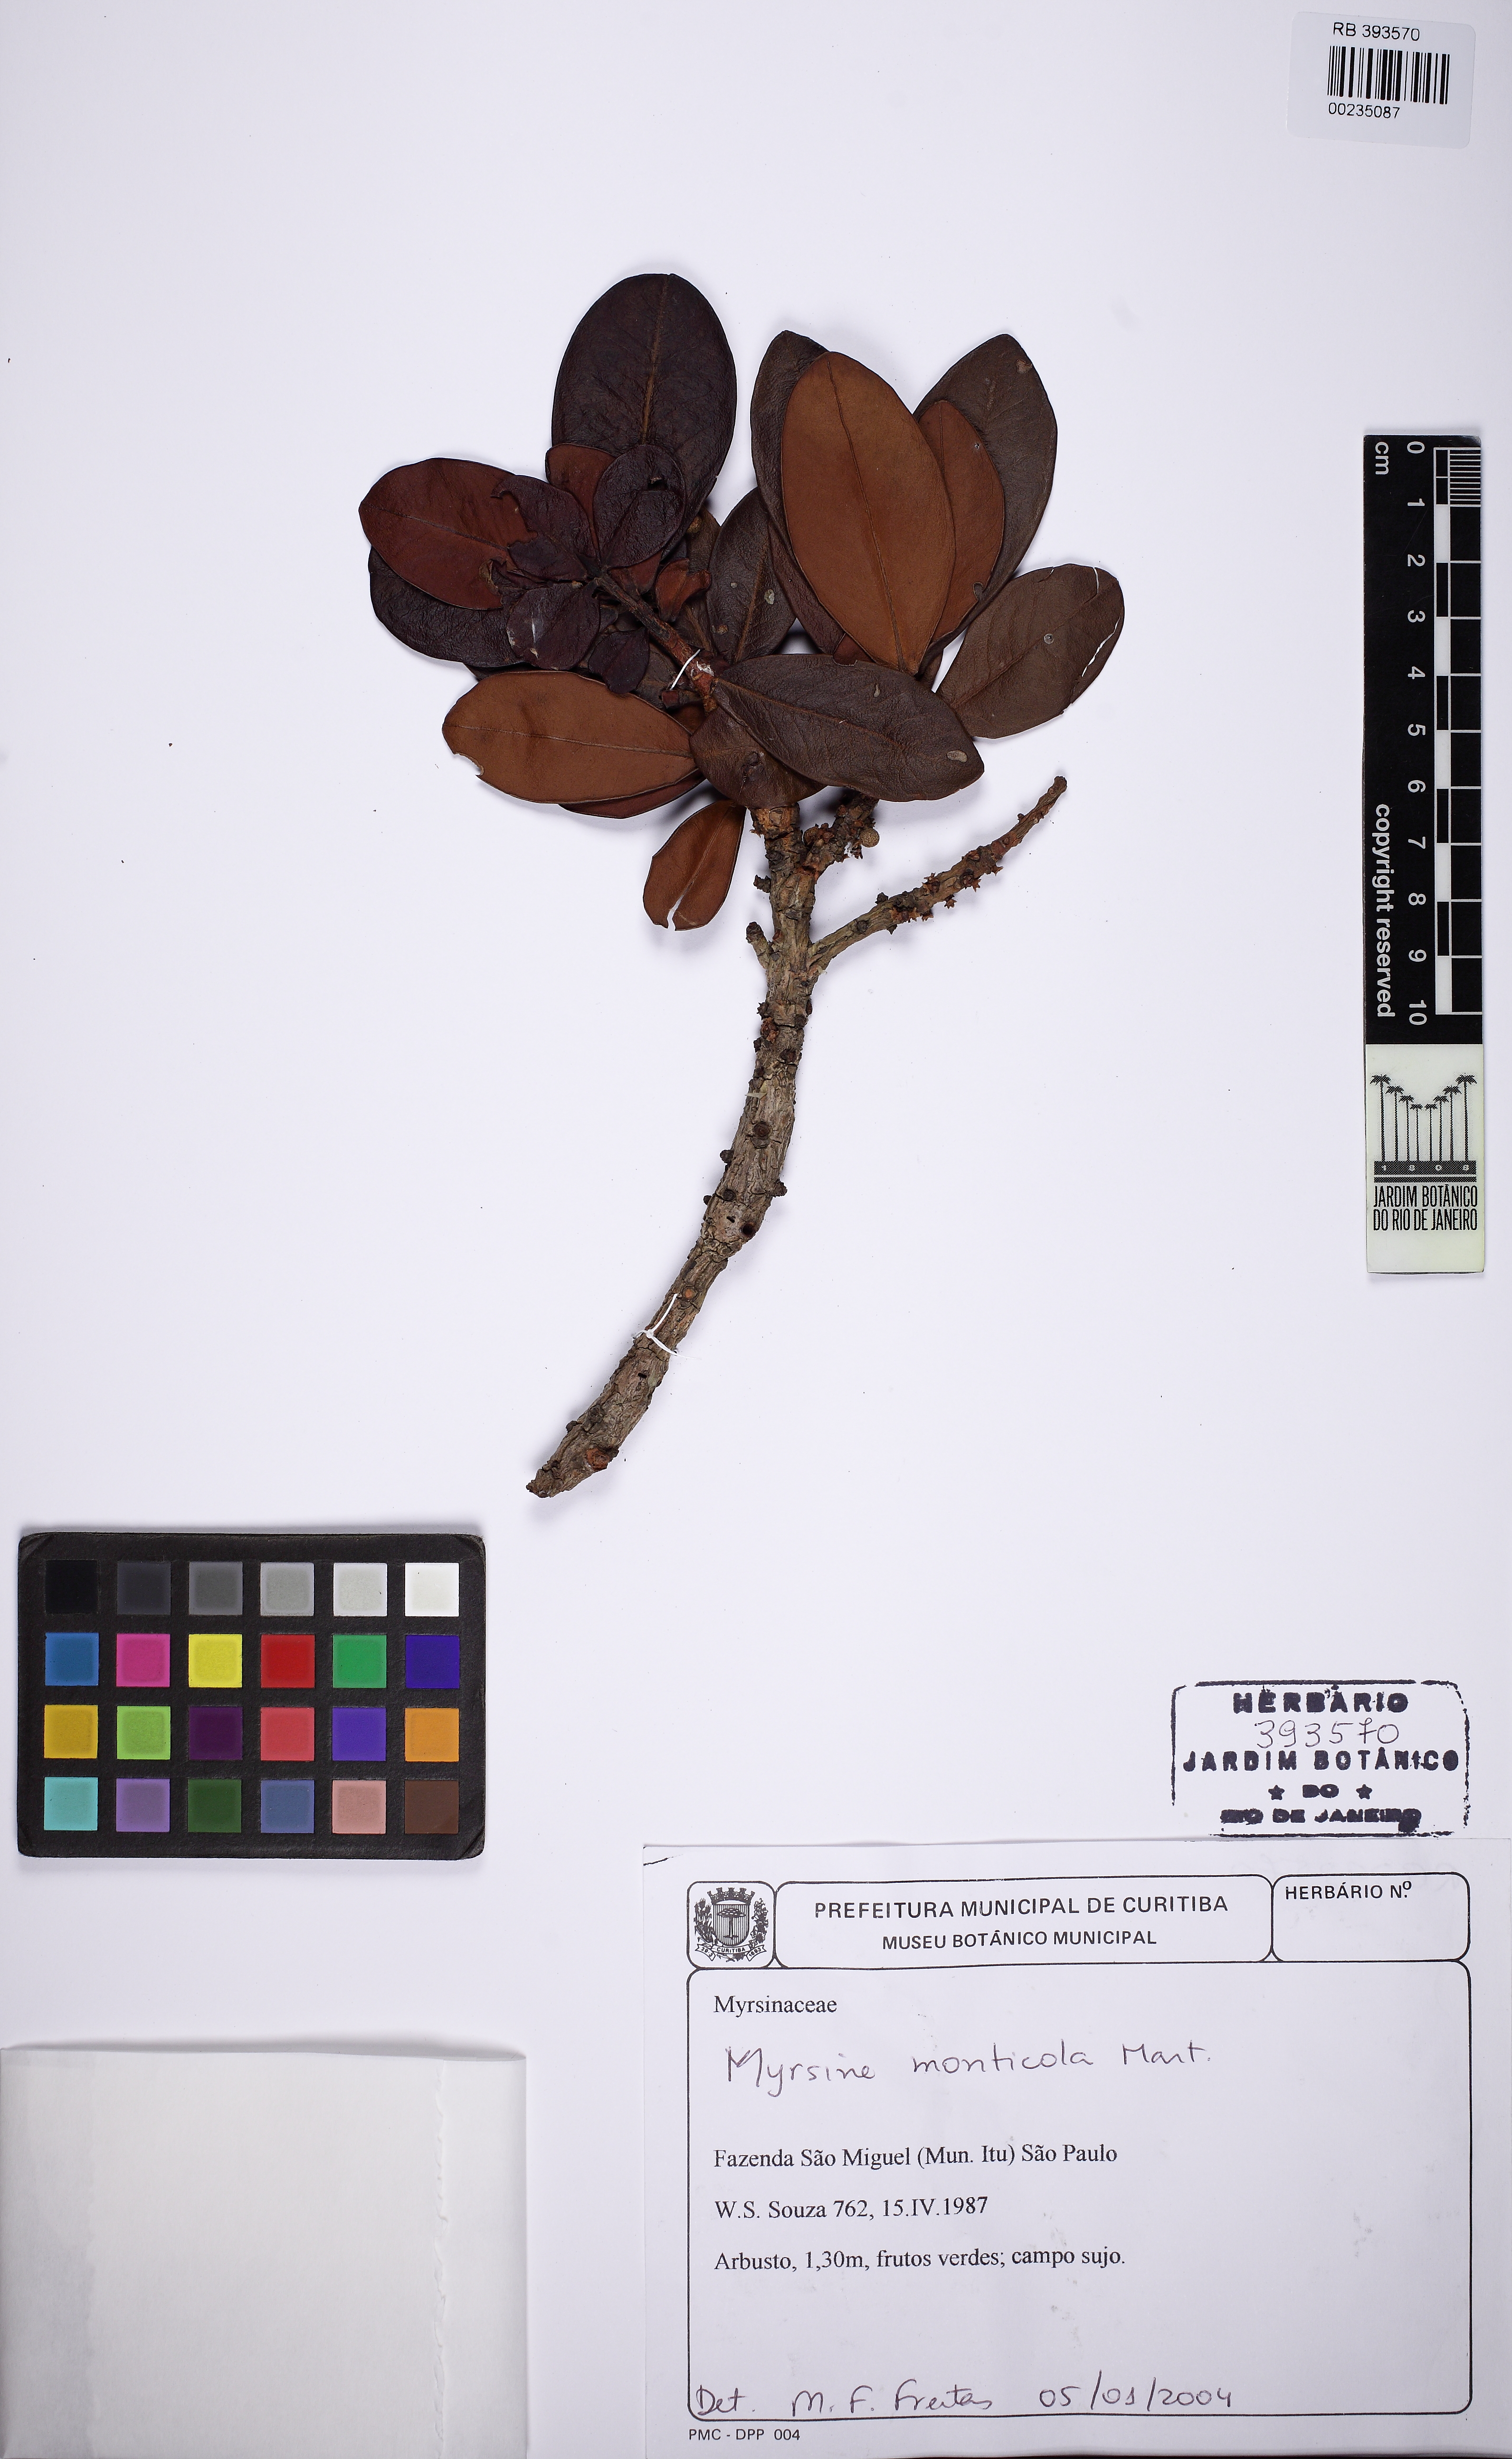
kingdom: Plantae
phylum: Tracheophyta
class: Magnoliopsida
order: Ericales
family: Primulaceae
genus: Myrsine
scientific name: Myrsine monticola
